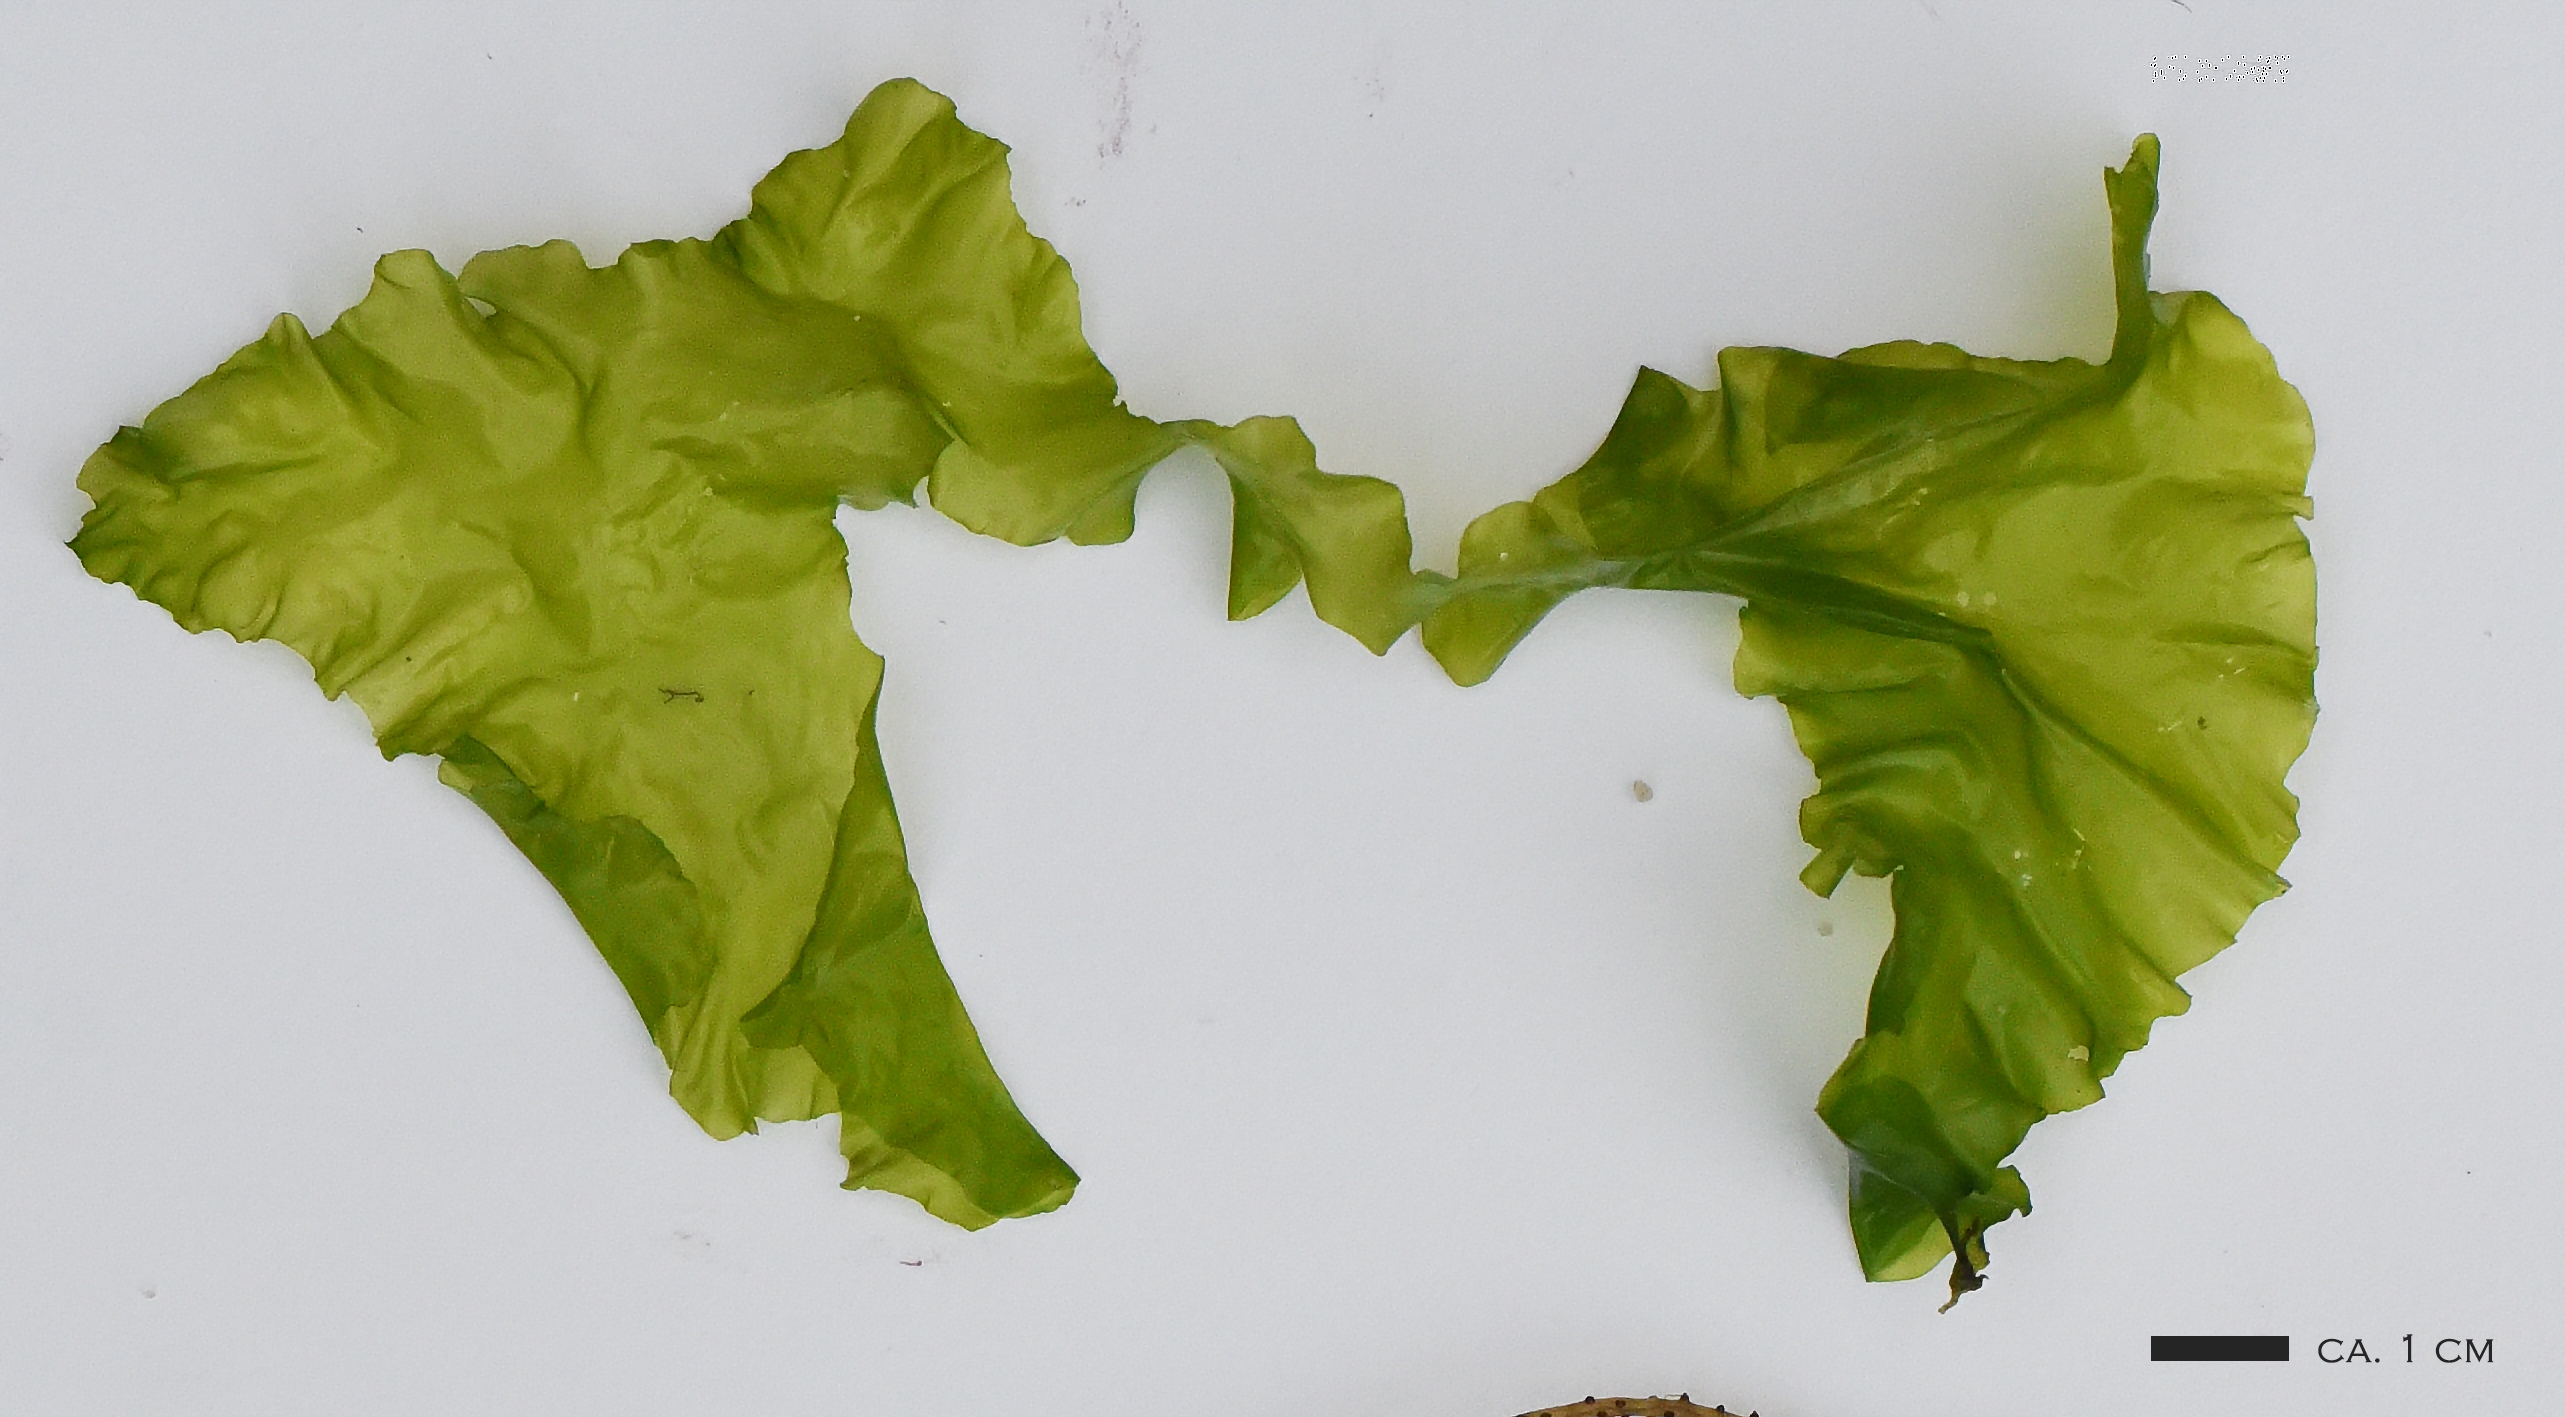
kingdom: Plantae
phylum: Chlorophyta
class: Ulvophyceae
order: Ulvales
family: Ulvaceae
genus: Ulva
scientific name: Ulva lactuca
